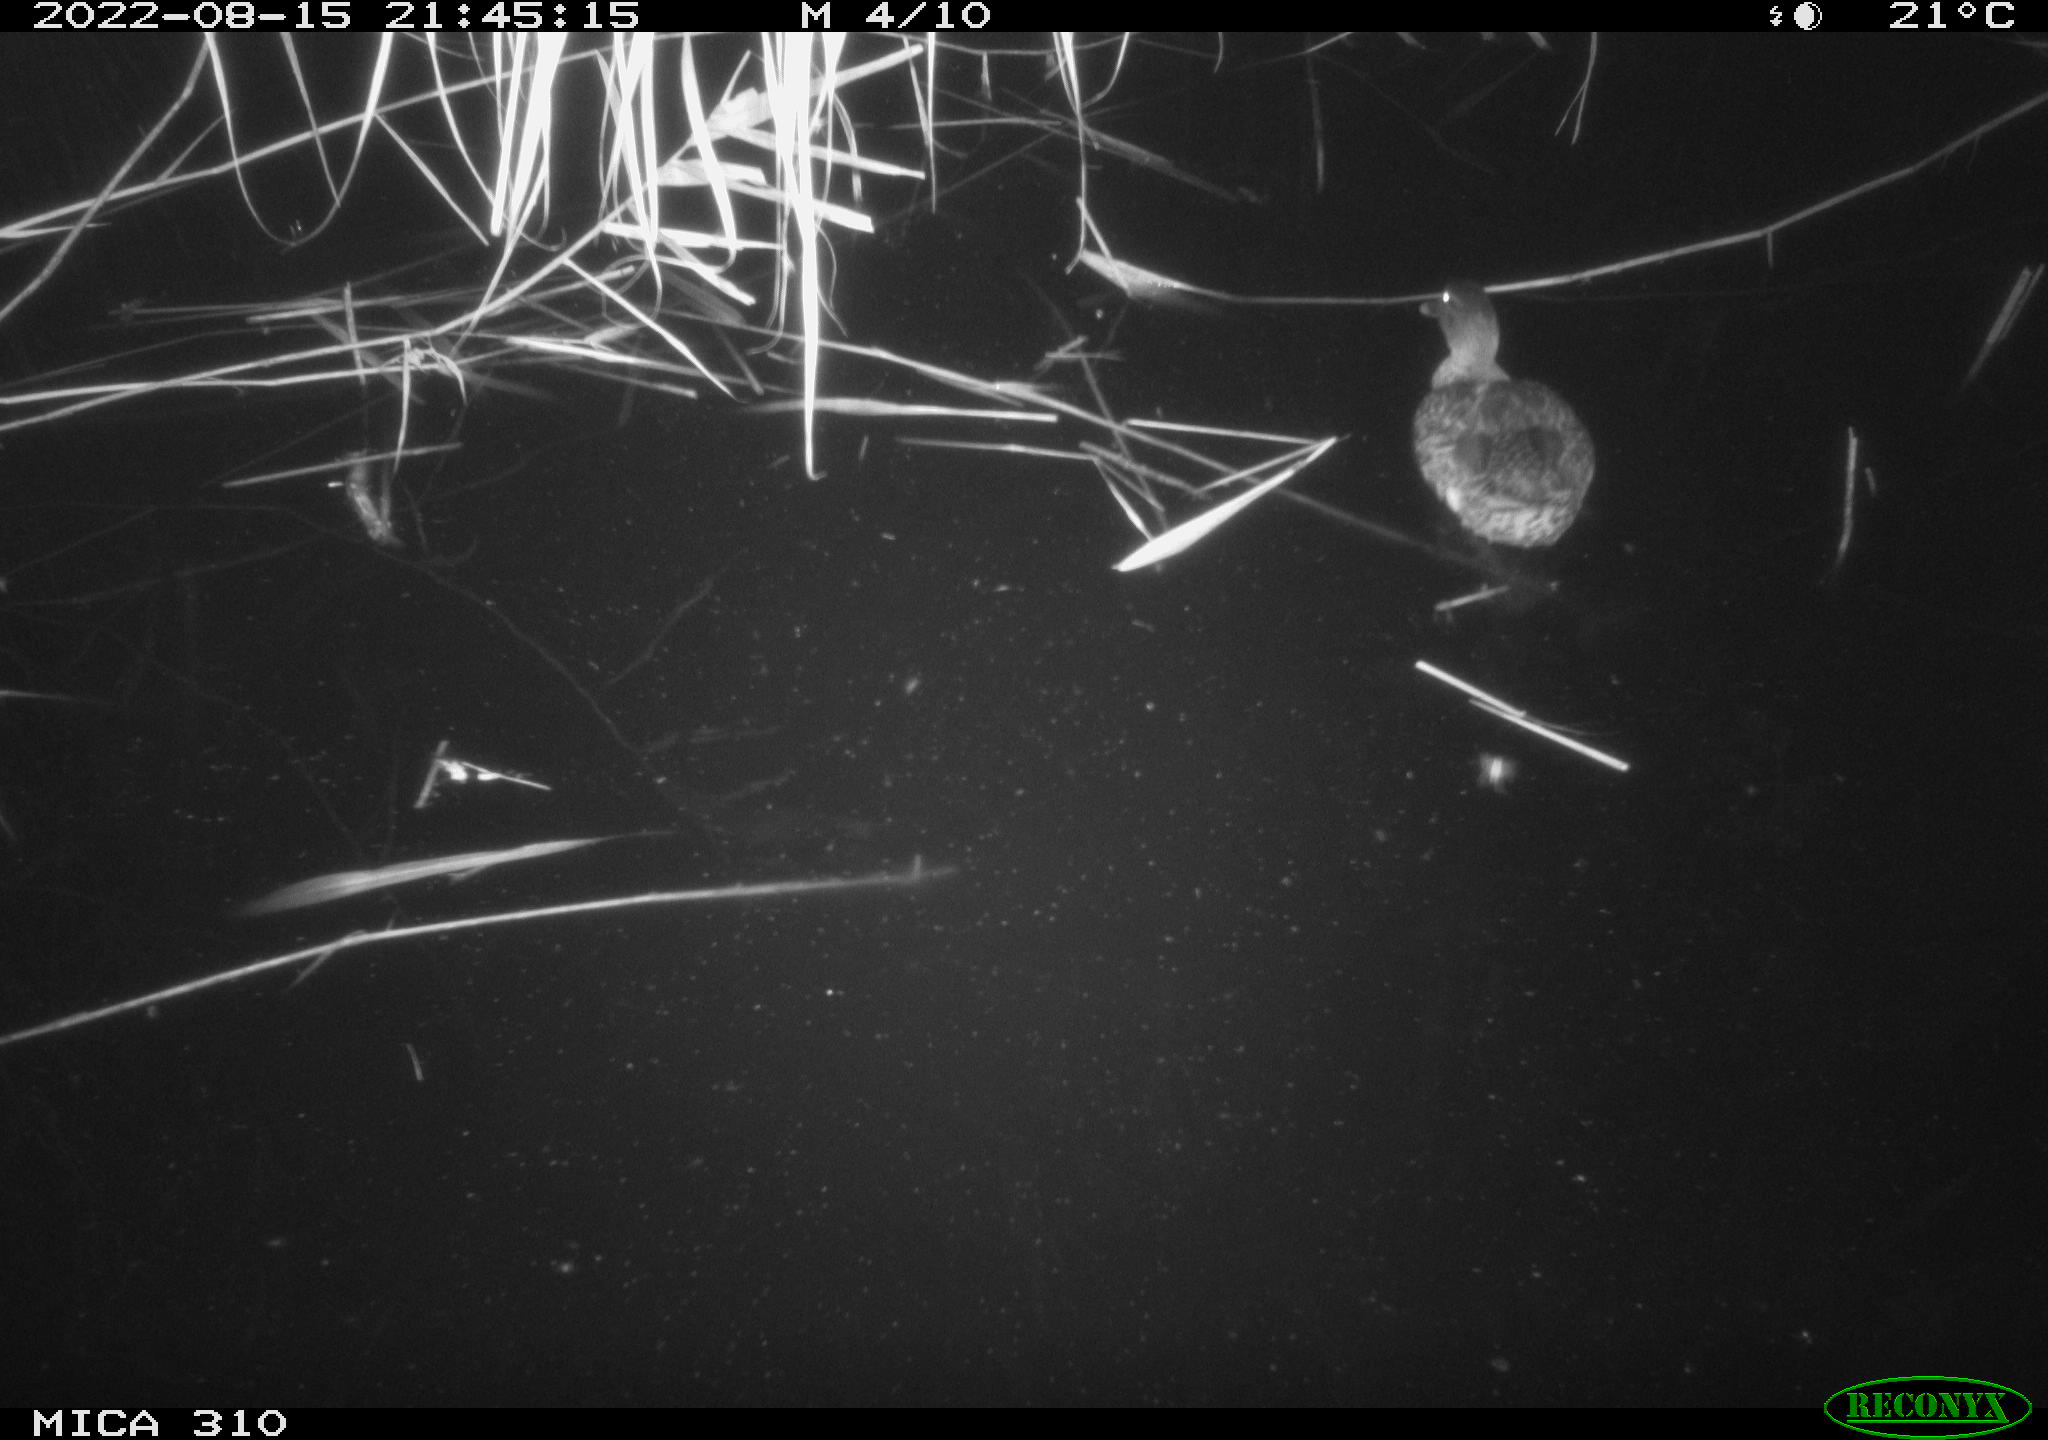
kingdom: Animalia
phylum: Chordata
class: Aves
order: Gruiformes
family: Rallidae
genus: Fulica
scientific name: Fulica atra
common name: Eurasian coot
